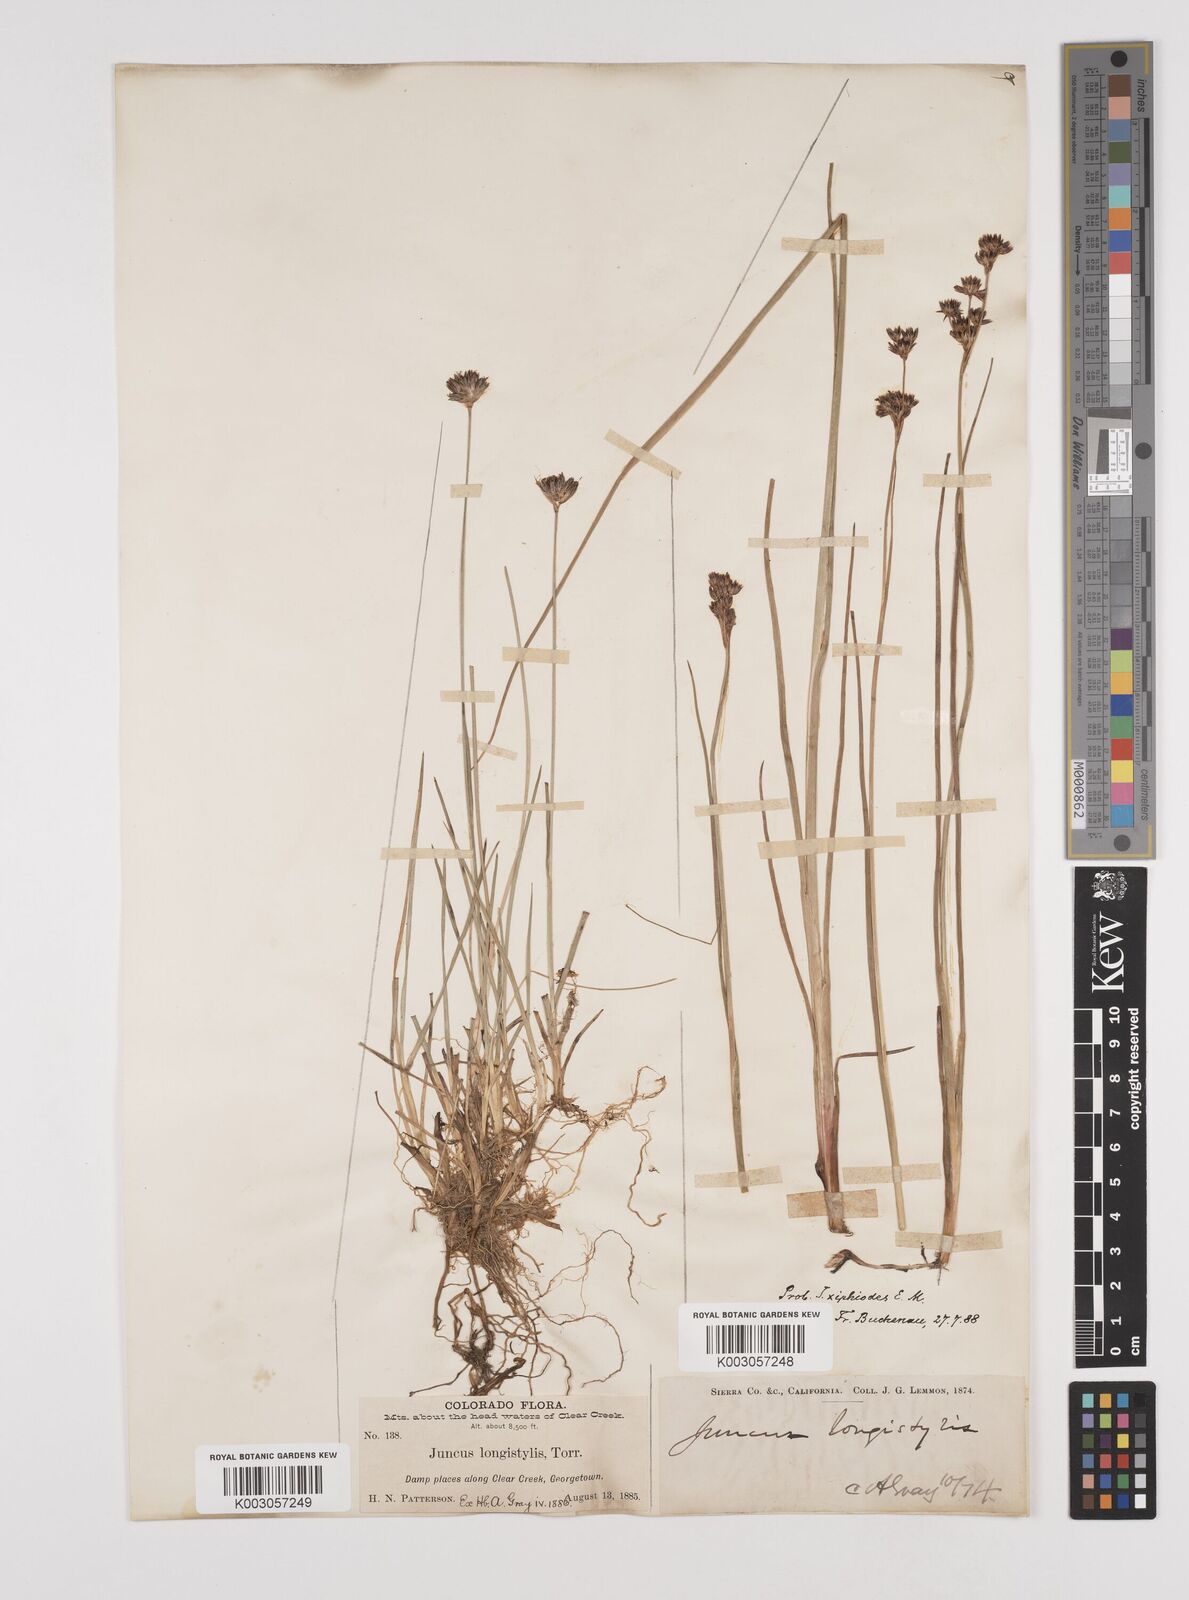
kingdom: Plantae
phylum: Tracheophyta
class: Liliopsida
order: Poales
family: Juncaceae
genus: Juncus
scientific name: Juncus xiphioides
